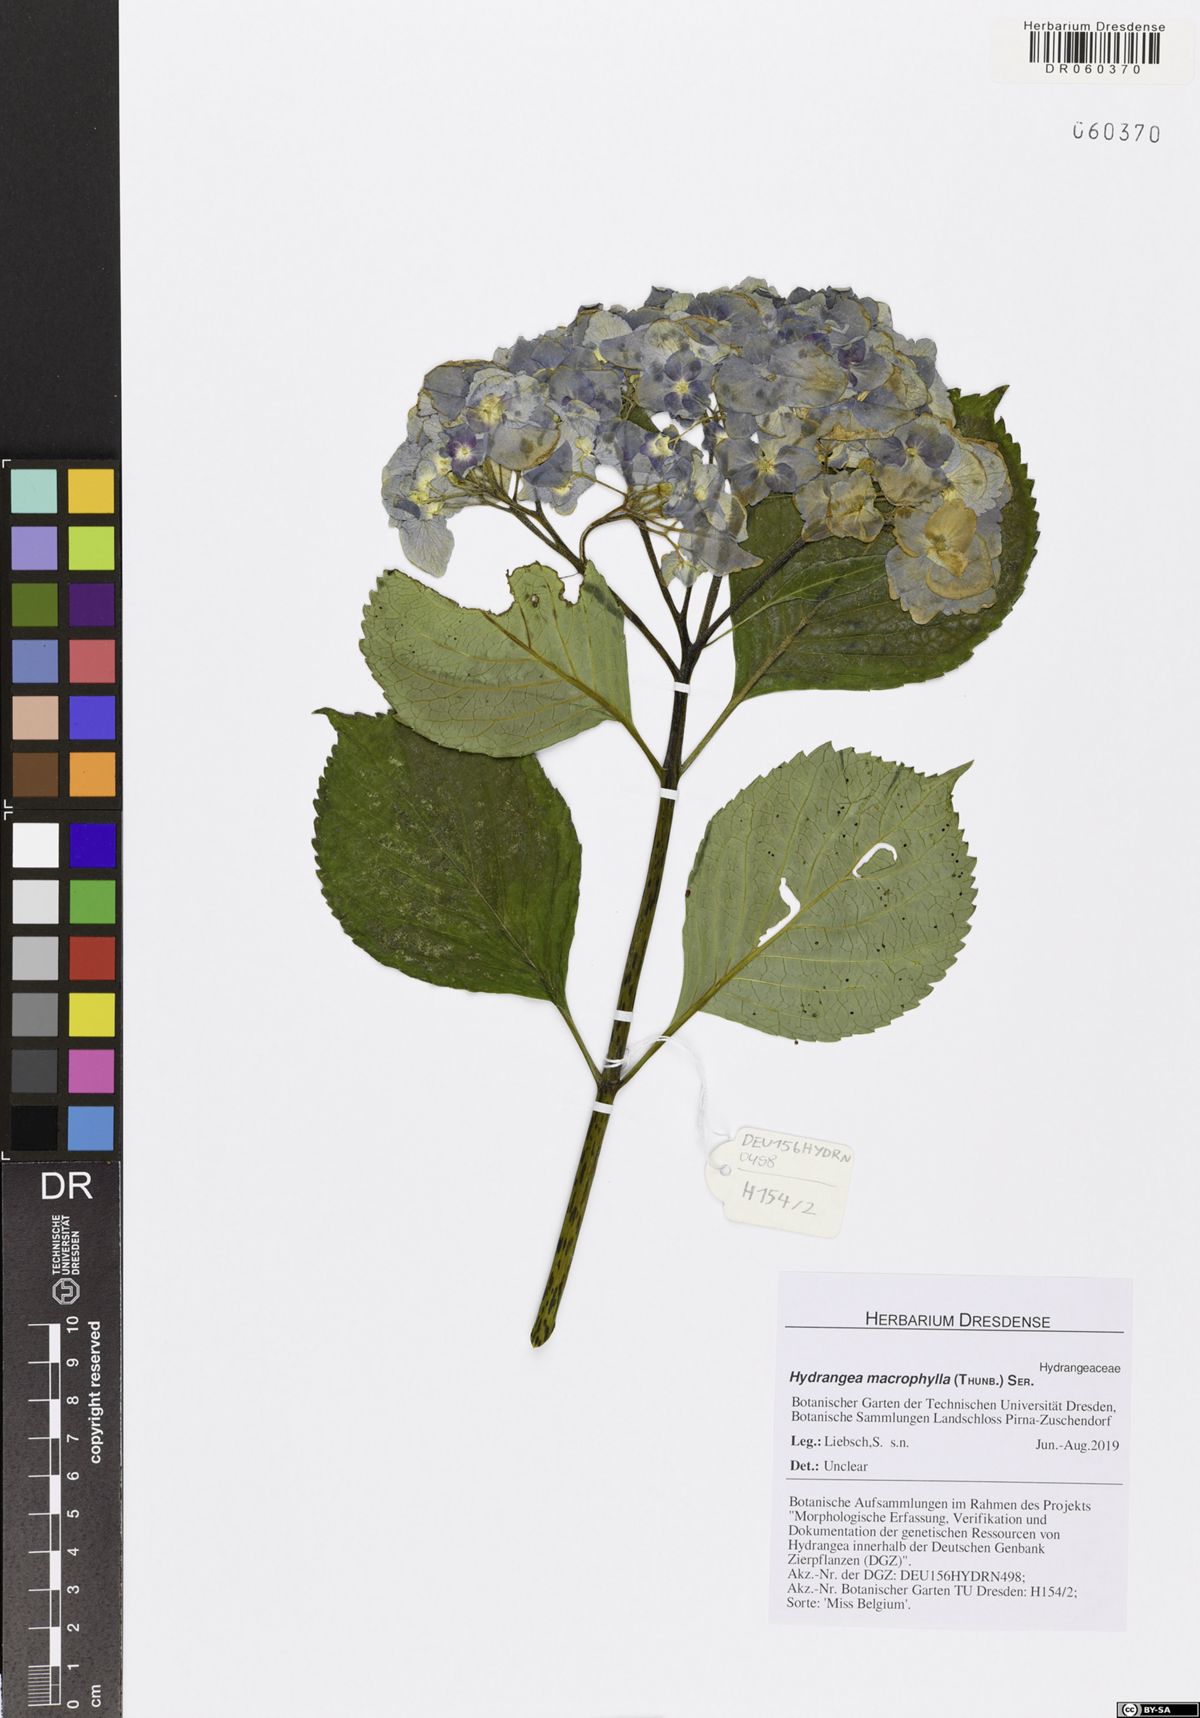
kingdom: Plantae
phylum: Tracheophyta
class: Magnoliopsida
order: Cornales
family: Hydrangeaceae
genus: Hydrangea
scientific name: Hydrangea macrophylla
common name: Hydrangea
